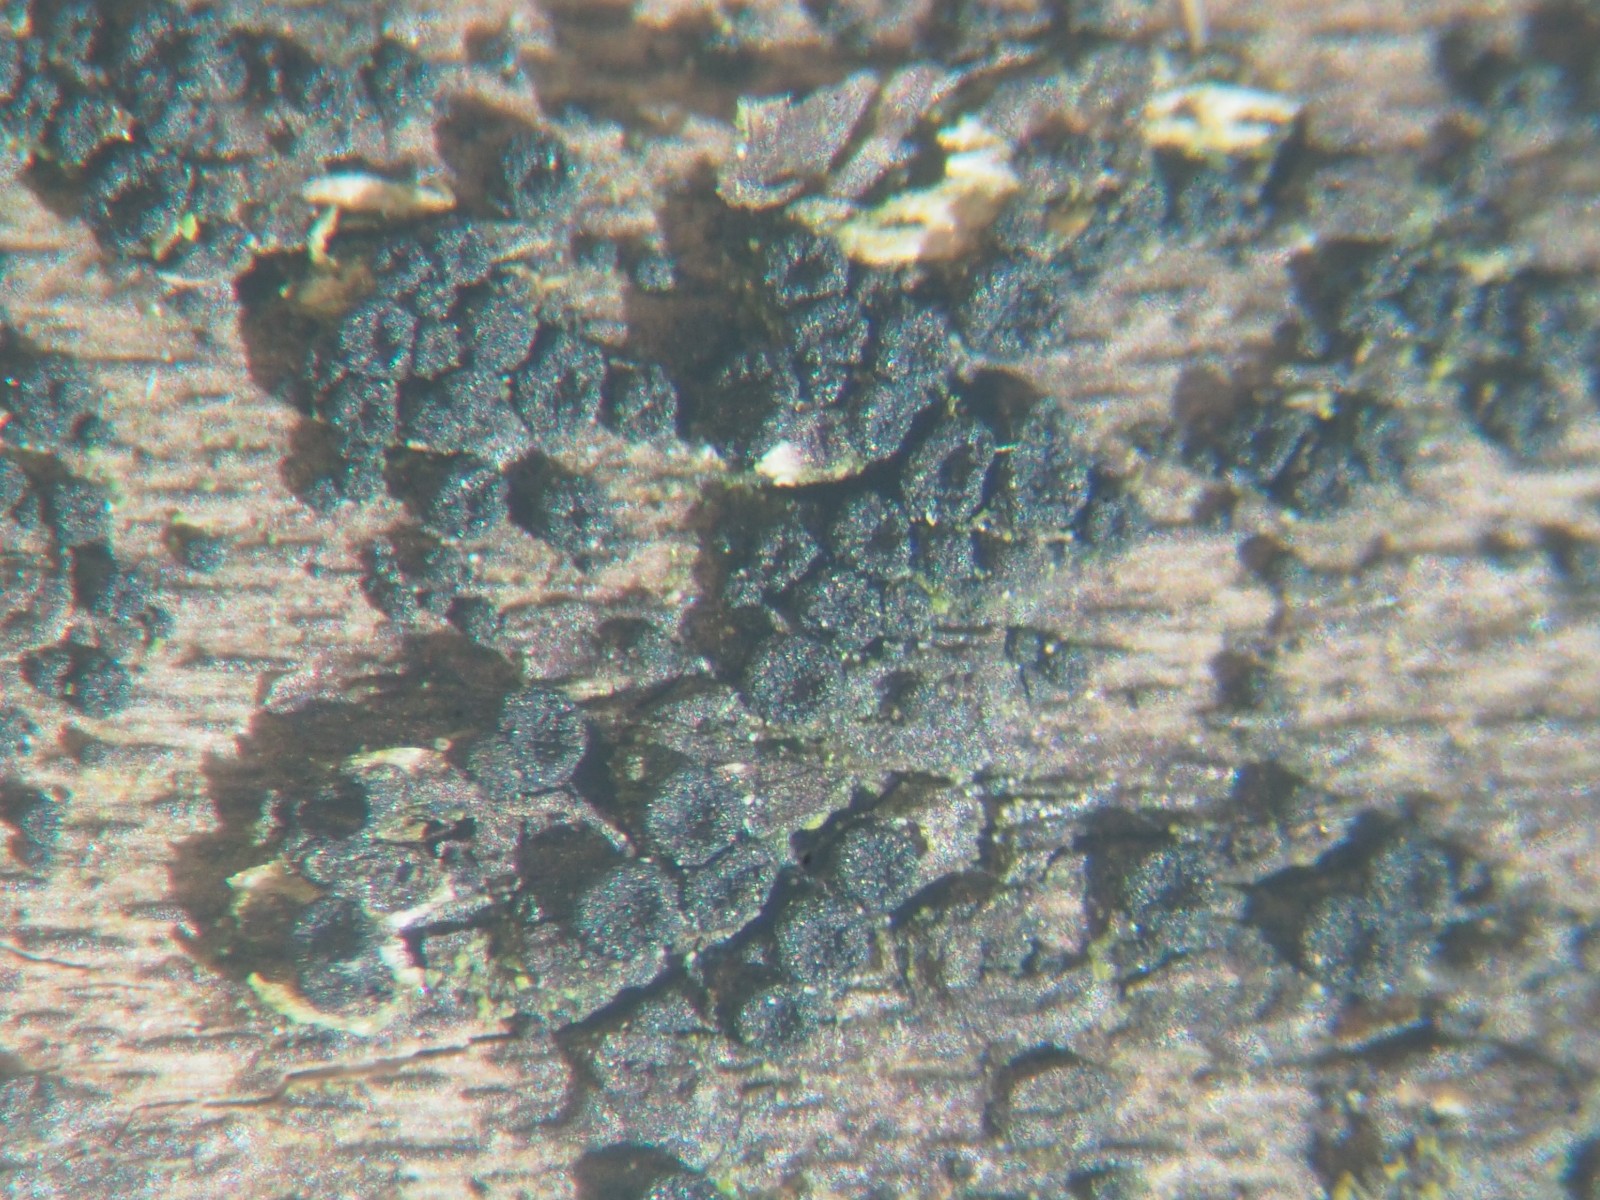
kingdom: Fungi
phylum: Ascomycota
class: Sordariomycetes
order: Coronophorales
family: Nitschkiaceae
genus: Nitschkia
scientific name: Nitschkia cupularis
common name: almindelig skålkerne
